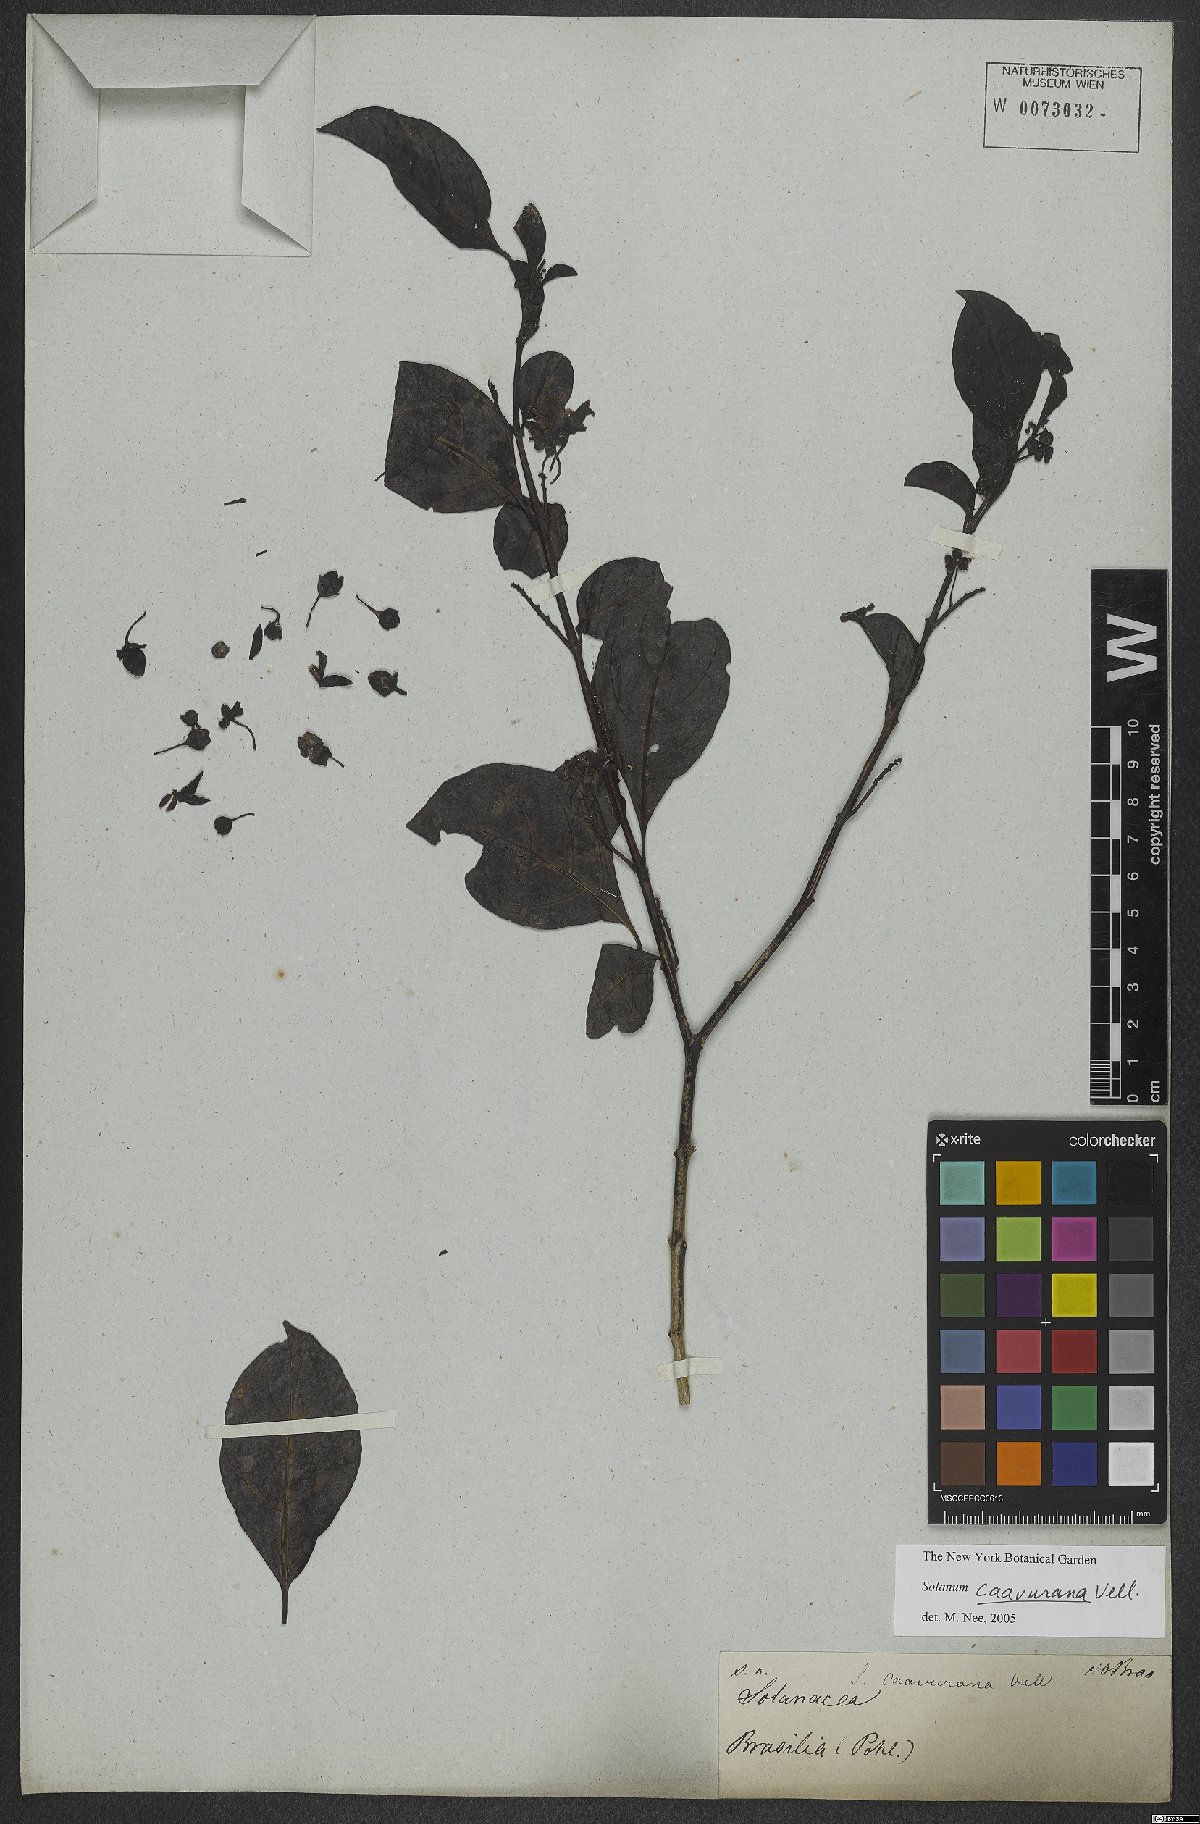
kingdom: Plantae
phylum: Tracheophyta
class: Magnoliopsida
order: Solanales
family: Solanaceae
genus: Solanum
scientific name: Solanum caavurana
